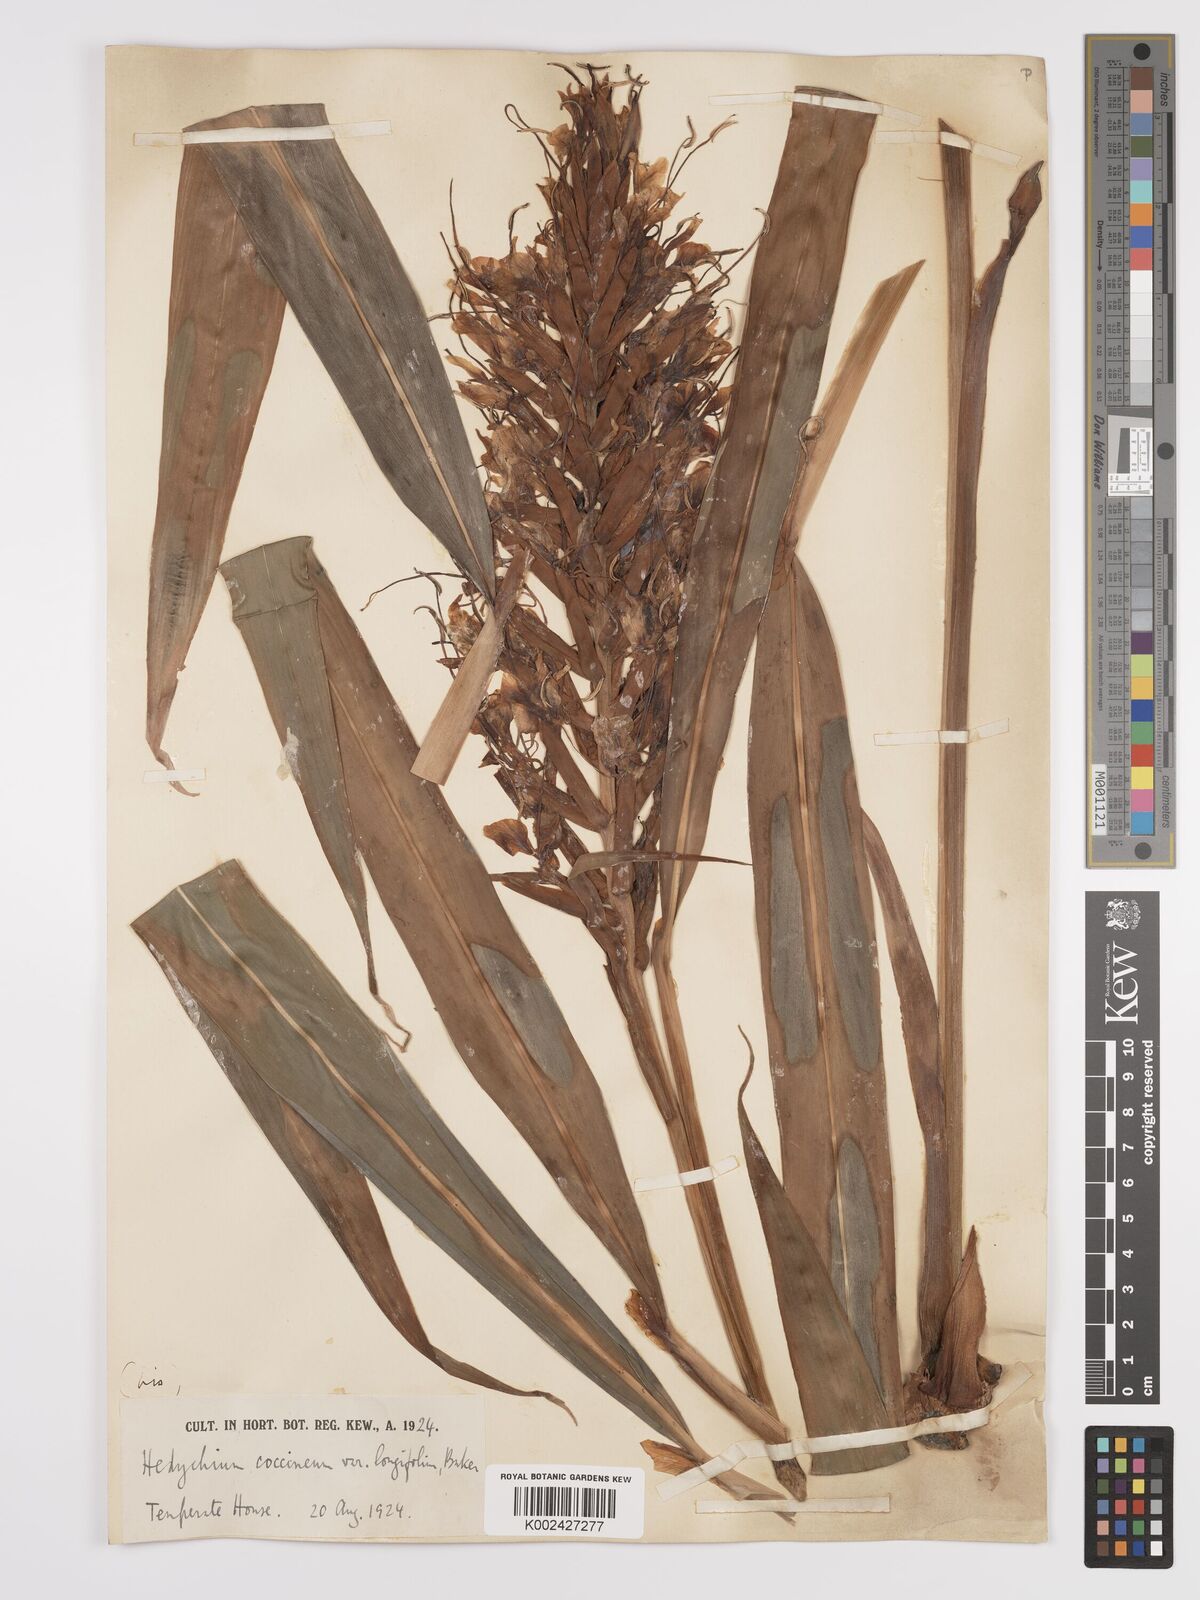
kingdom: Plantae
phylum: Tracheophyta
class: Liliopsida
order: Zingiberales
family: Zingiberaceae
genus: Hedychium
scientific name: Hedychium coccineum
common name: Red ginger-lily
